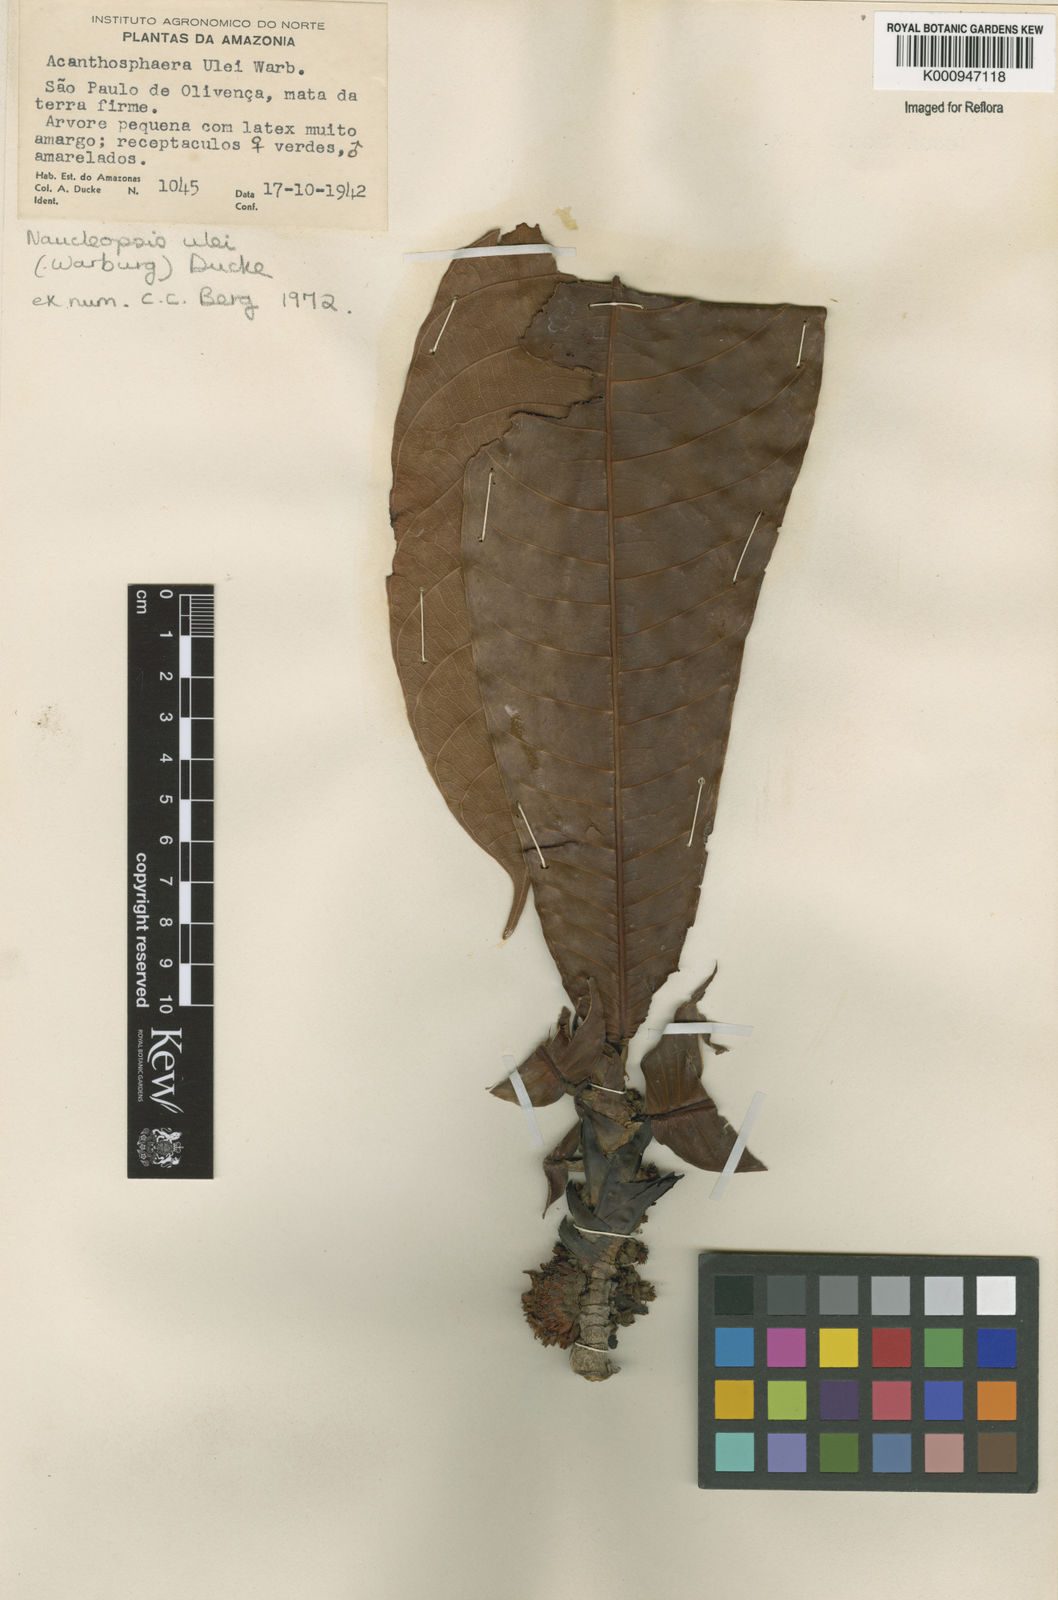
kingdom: Plantae
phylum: Tracheophyta
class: Magnoliopsida
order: Rosales
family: Moraceae
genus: Naucleopsis
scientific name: Naucleopsis ulei
